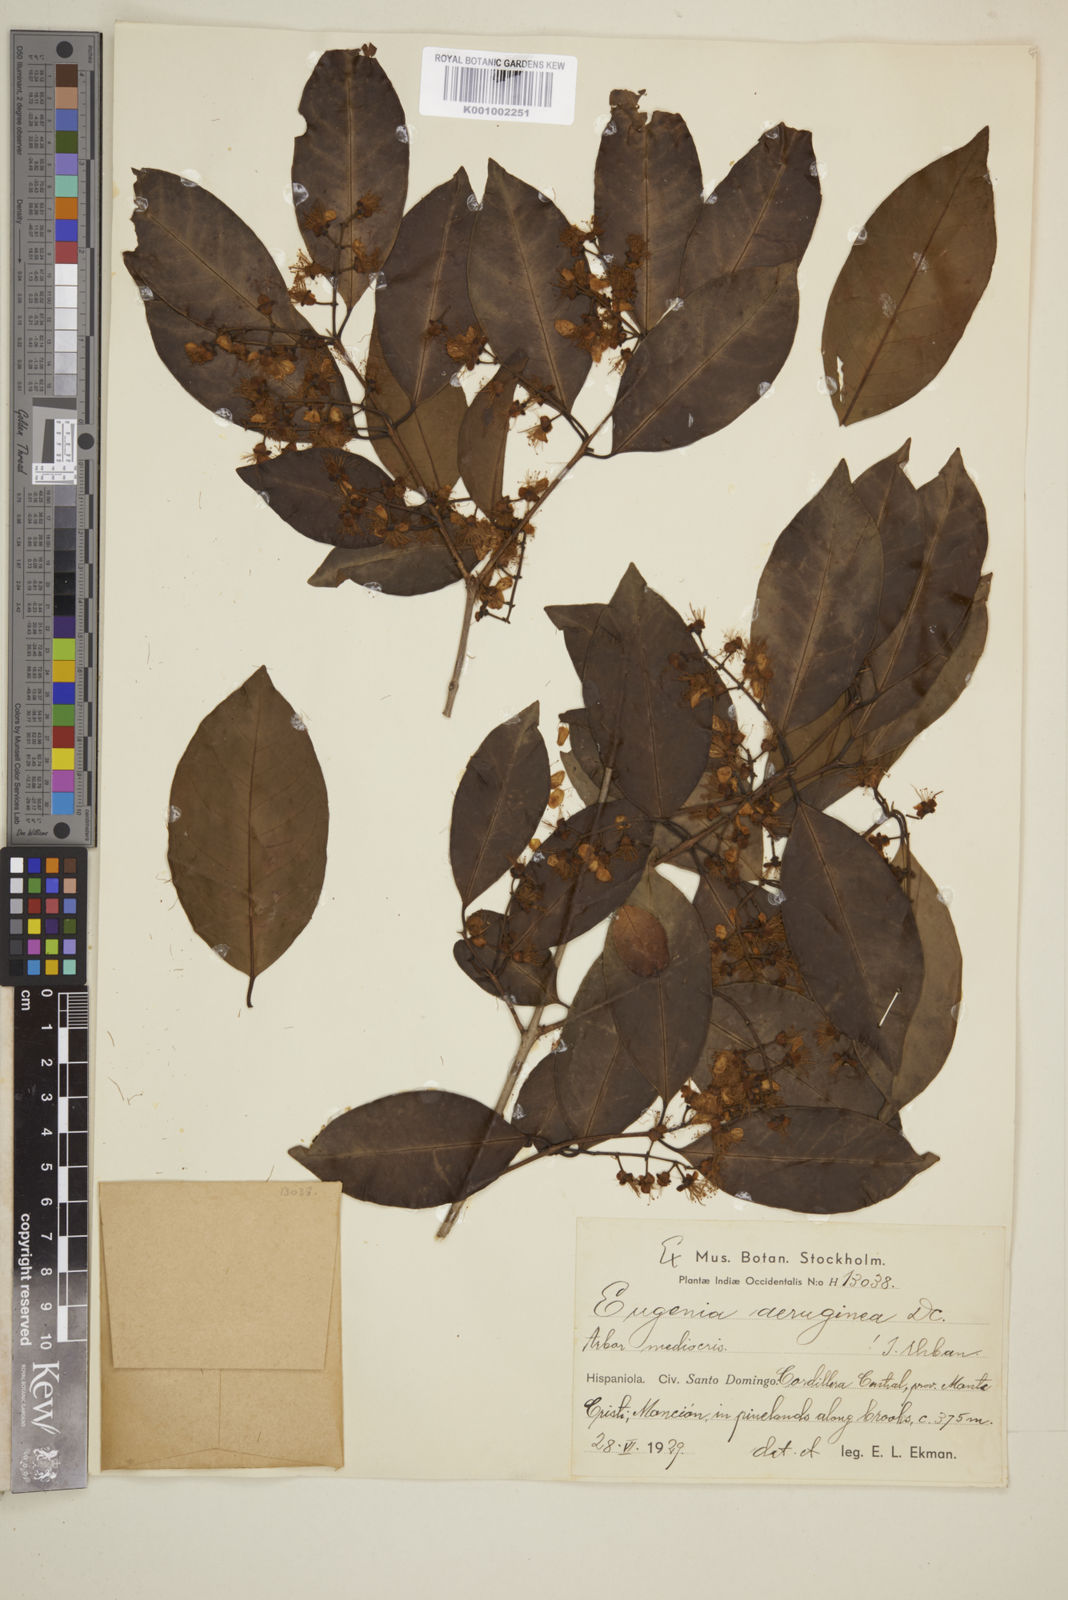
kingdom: Plantae
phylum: Tracheophyta
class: Magnoliopsida
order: Myrtales
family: Myrtaceae
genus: Eugenia
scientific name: Eugenia domingensis
